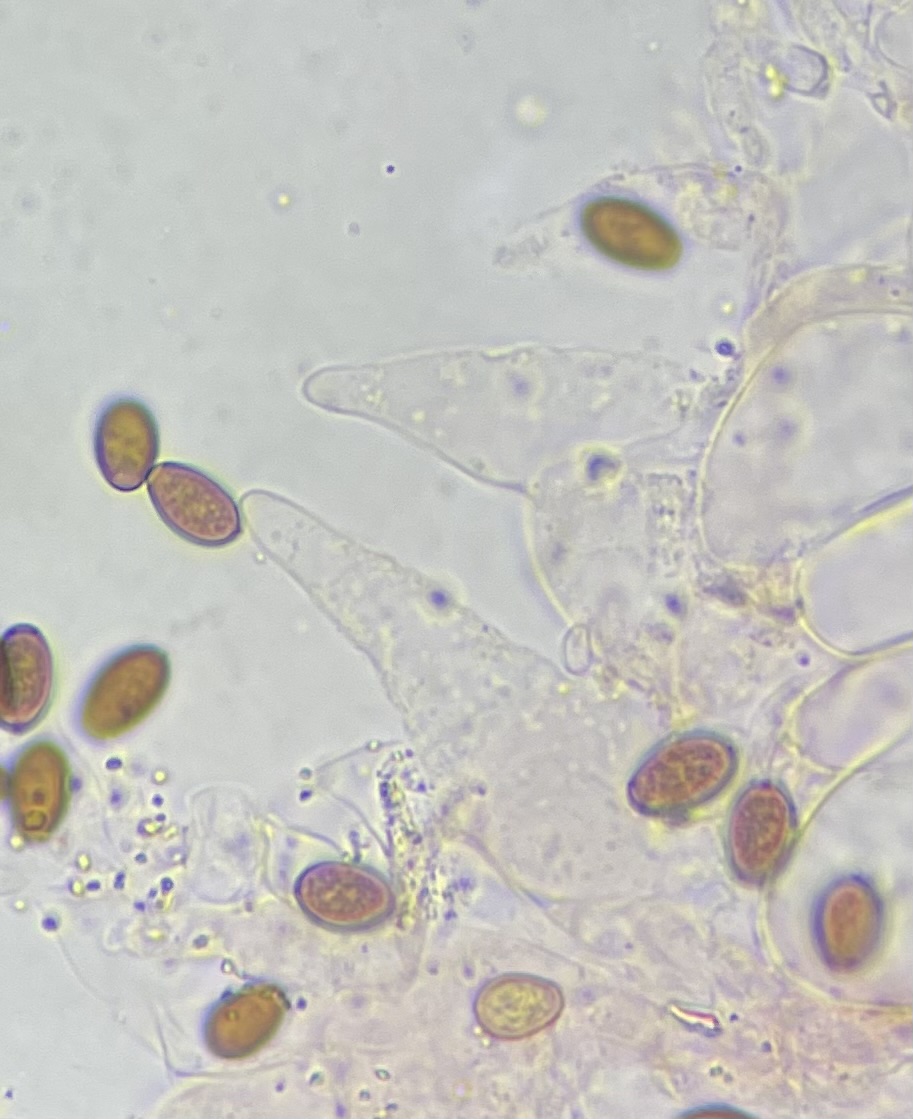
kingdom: Fungi
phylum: Basidiomycota
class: Agaricomycetes
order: Agaricales
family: Psathyrellaceae
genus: Coprinopsis
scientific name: Coprinopsis atramentaria
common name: almindelig blækhat
